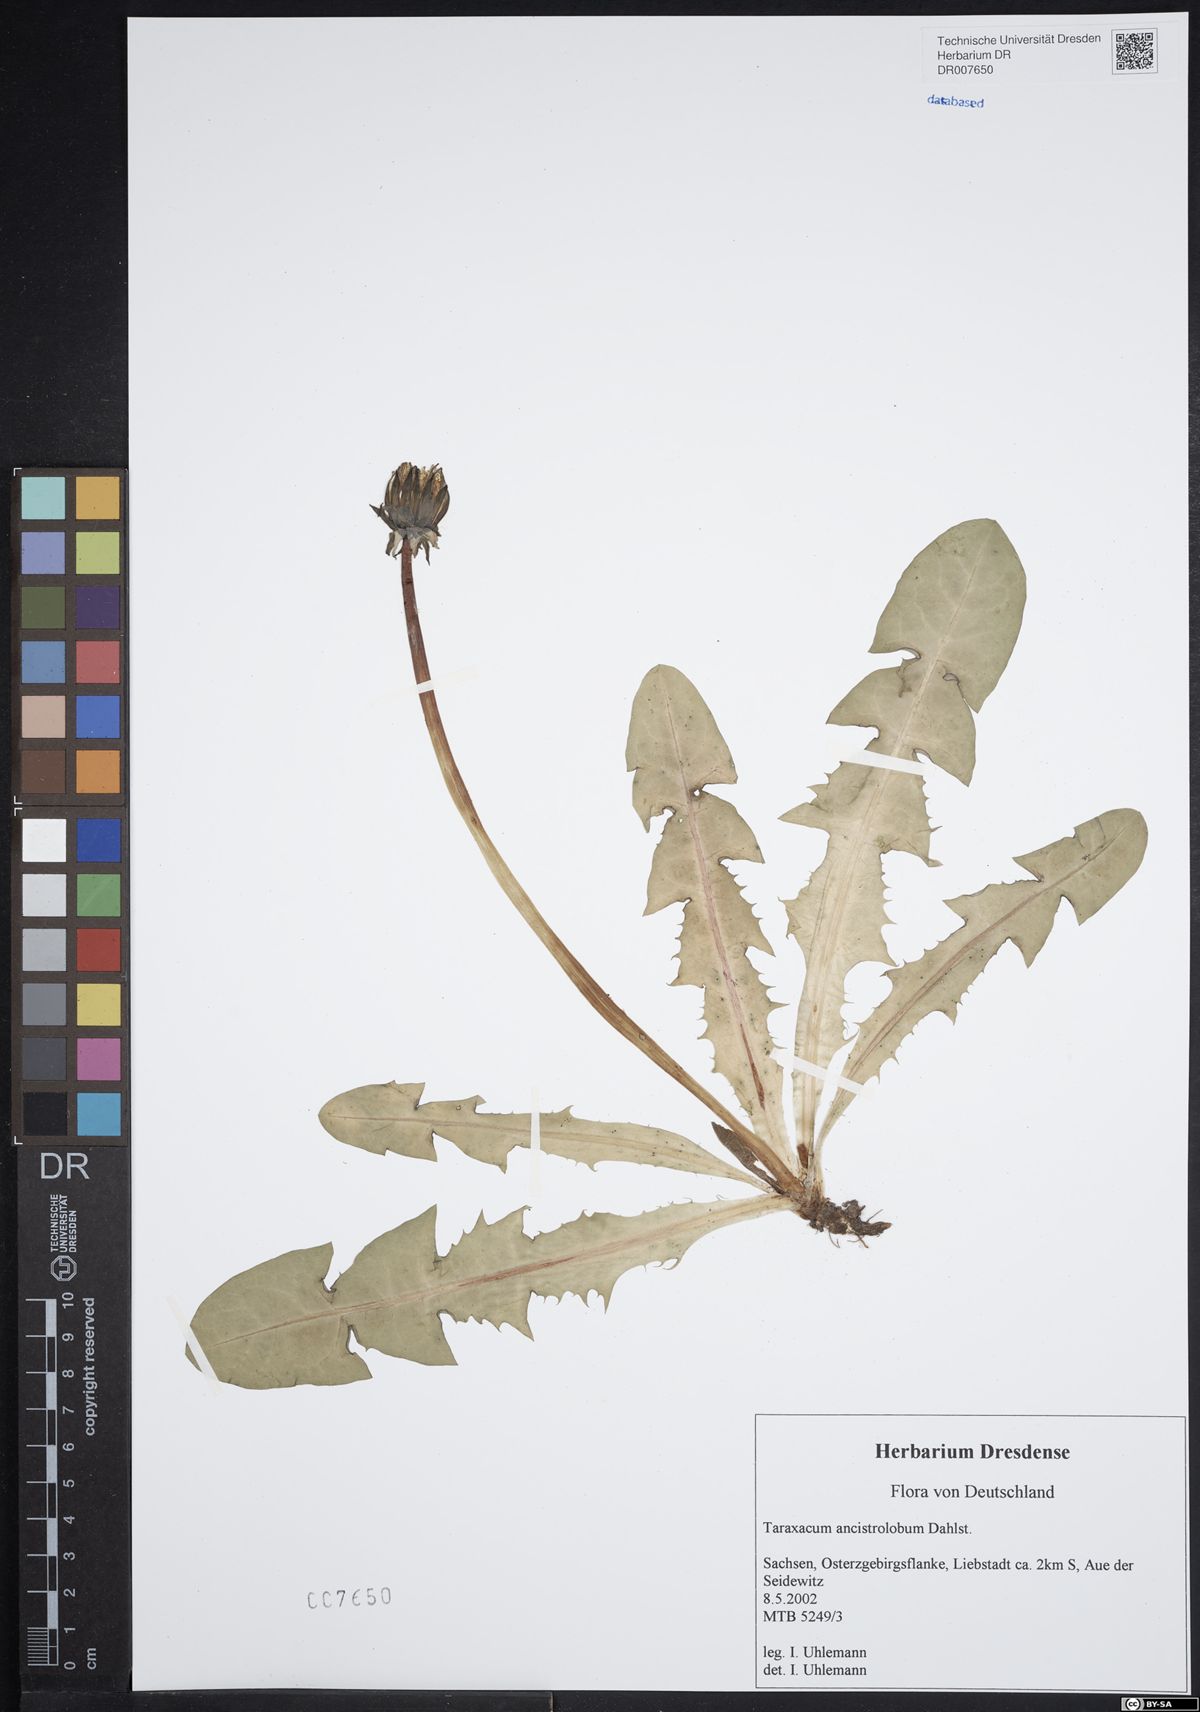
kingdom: Plantae
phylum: Tracheophyta
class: Magnoliopsida
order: Asterales
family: Asteraceae
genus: Taraxacum
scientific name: Taraxacum ancistrolobum
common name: Few-lobed dandelion
